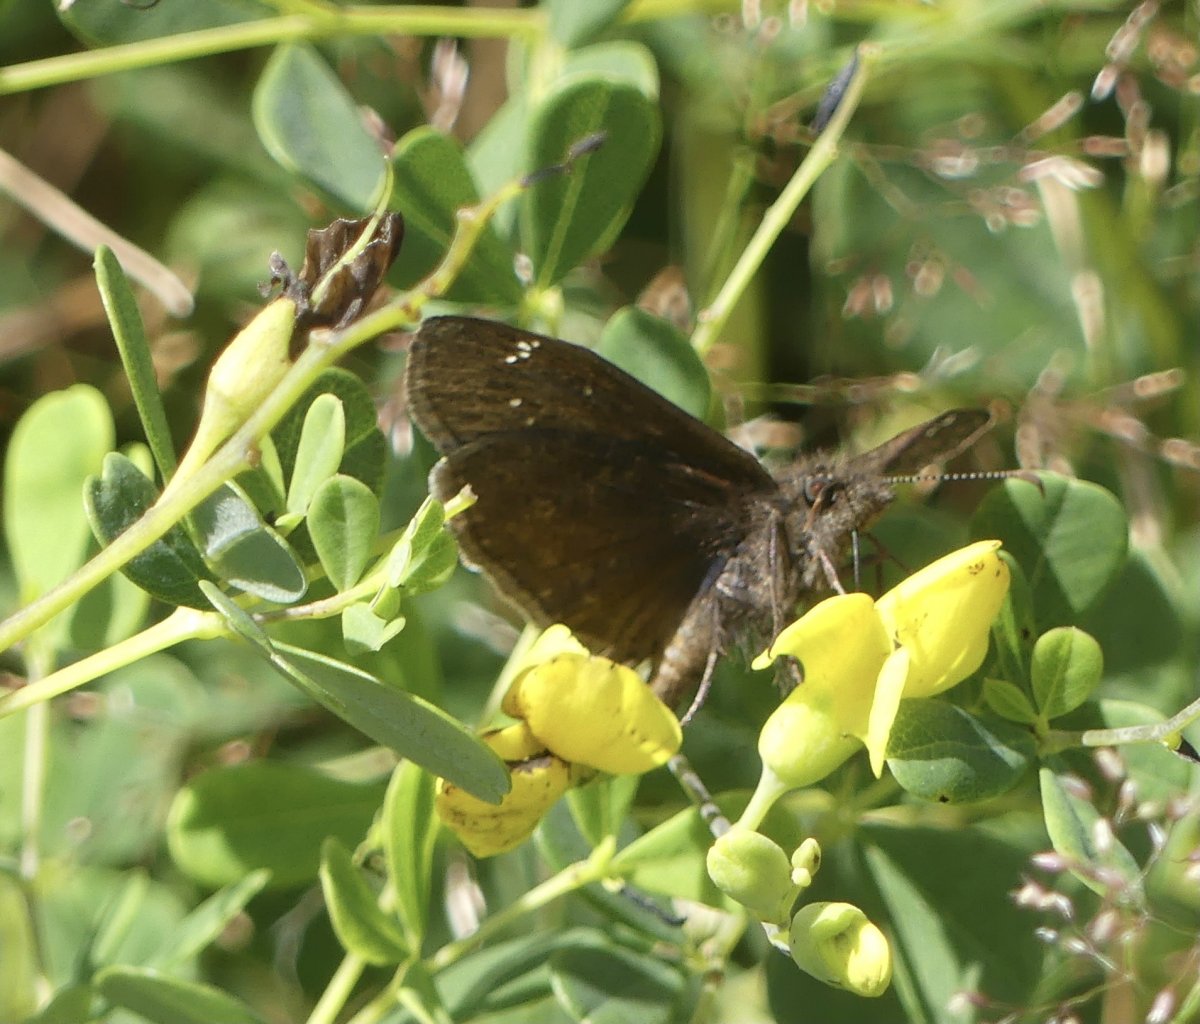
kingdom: Animalia
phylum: Arthropoda
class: Insecta
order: Lepidoptera
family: Hesperiidae
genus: Gesta
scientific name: Gesta
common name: Horace's Duskywing
